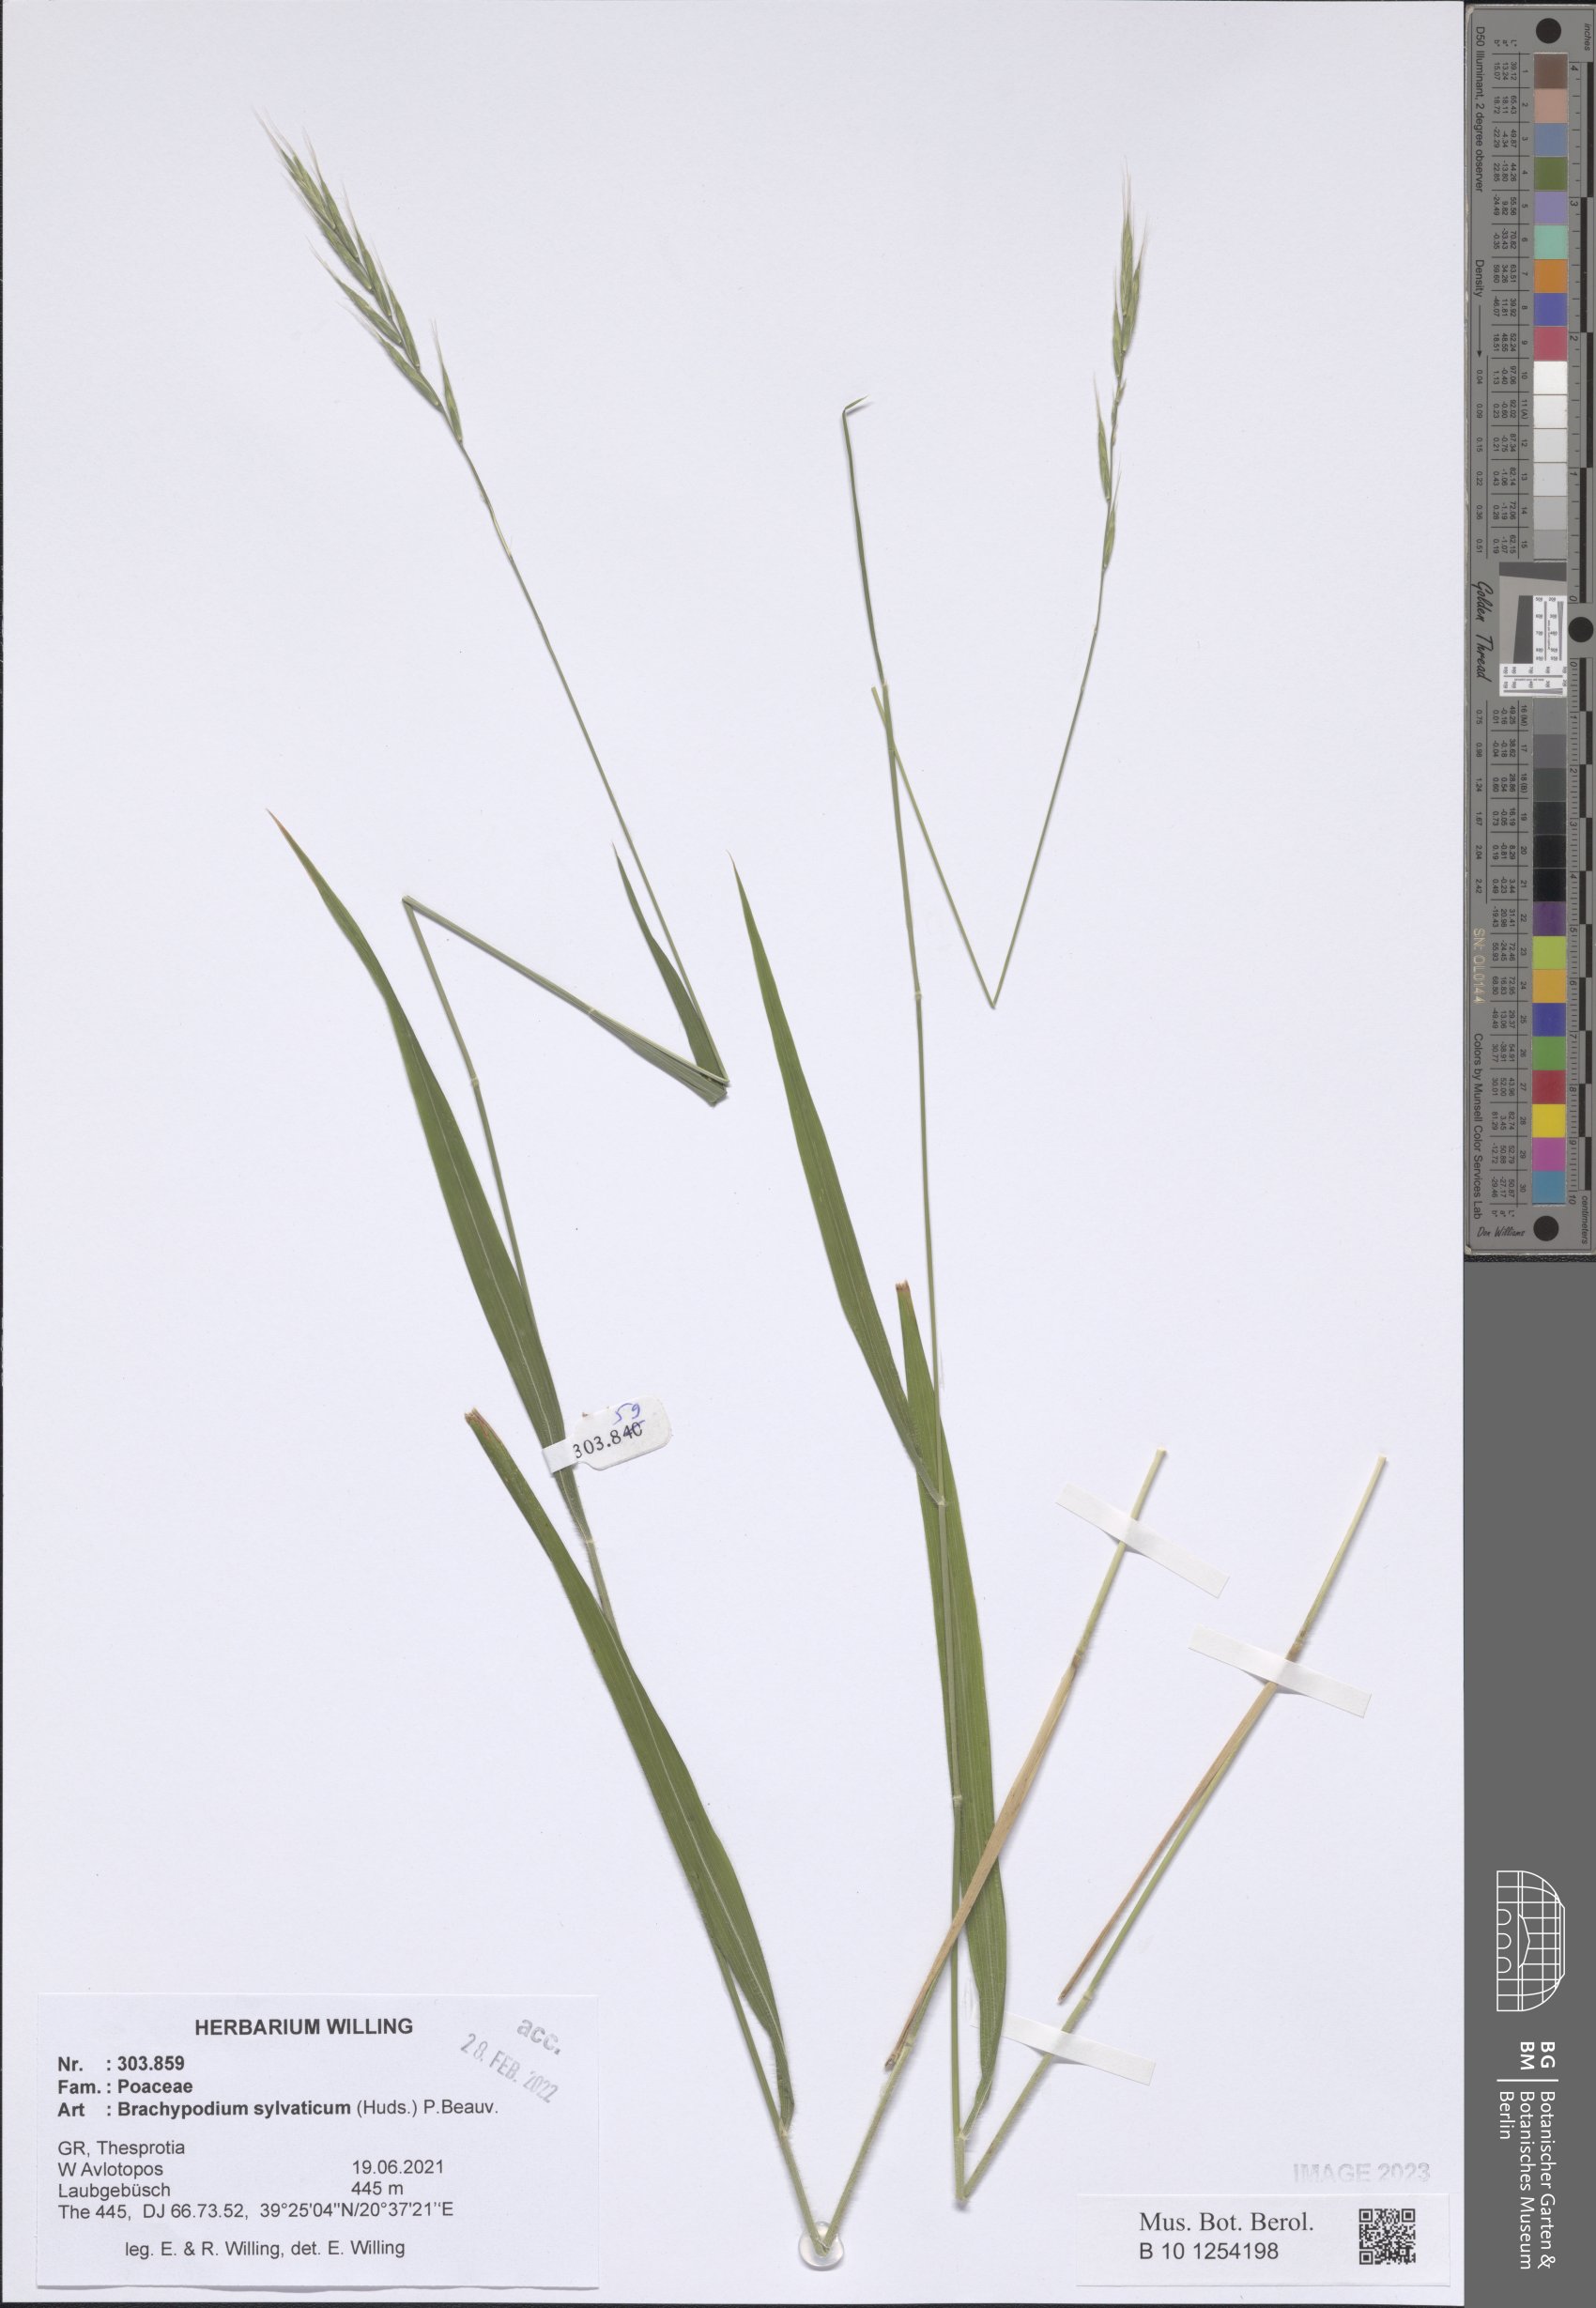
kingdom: Plantae
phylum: Tracheophyta
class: Liliopsida
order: Poales
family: Poaceae
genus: Brachypodium
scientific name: Brachypodium sylvaticum
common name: False-brome
